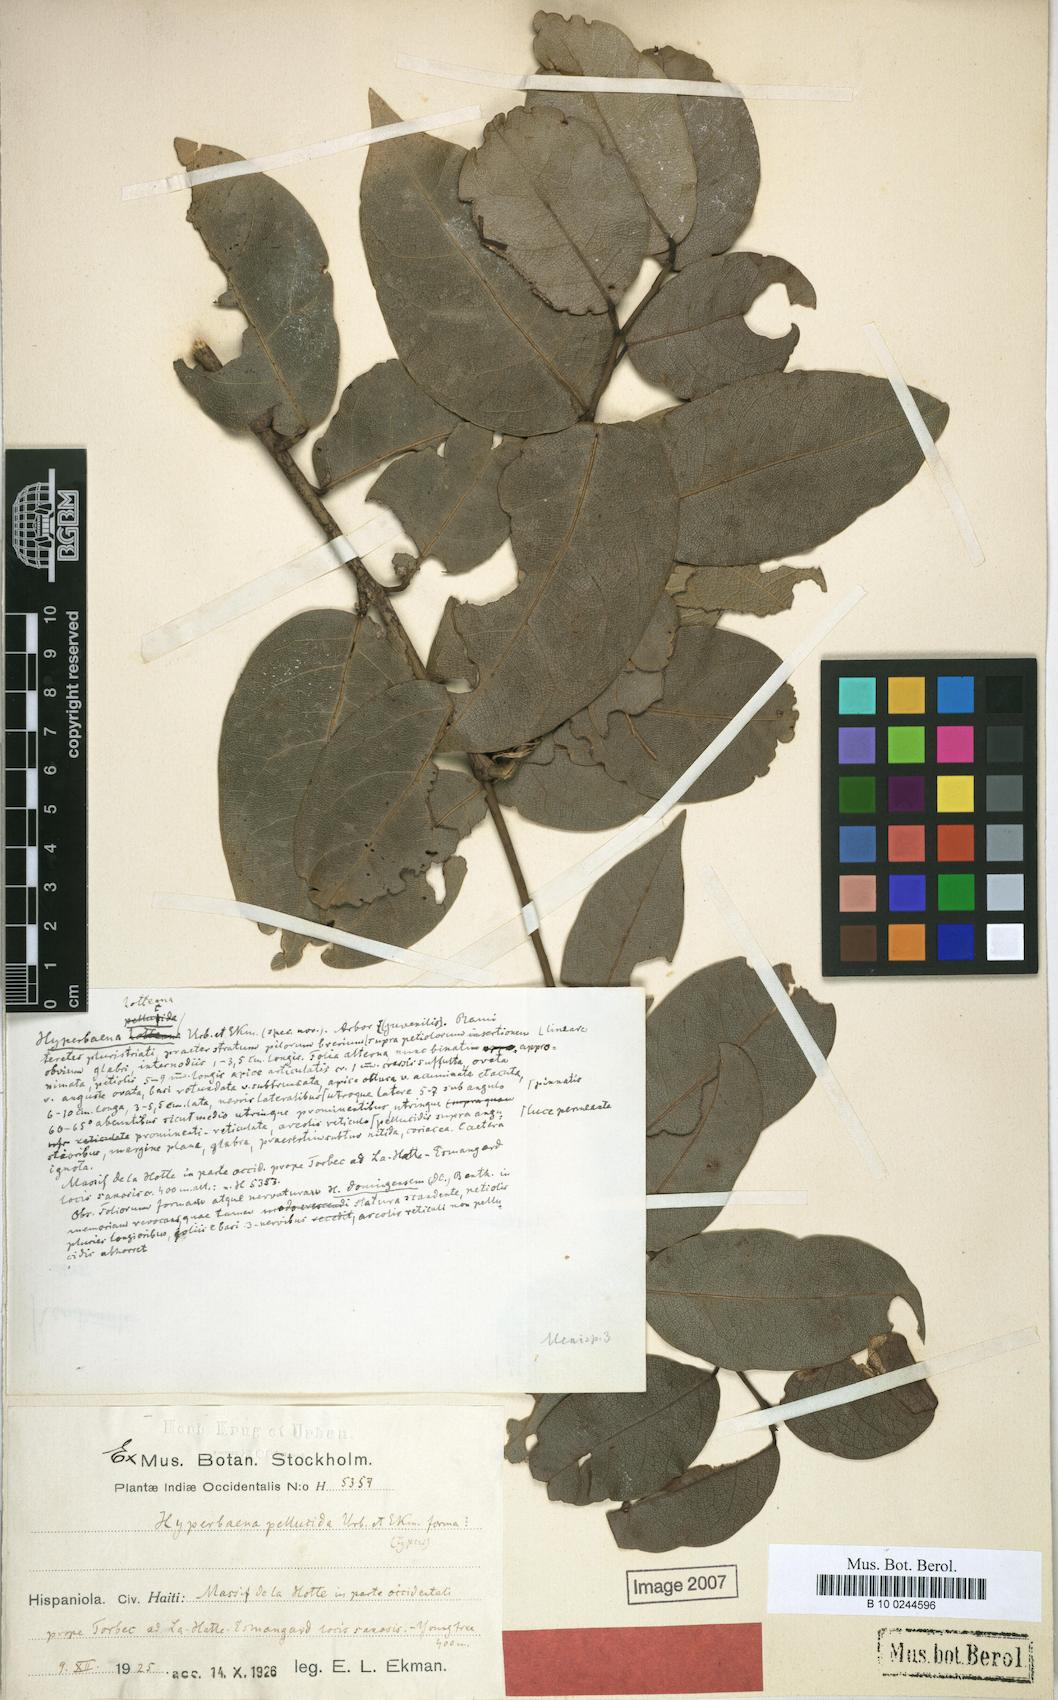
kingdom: Plantae
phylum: Tracheophyta
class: Magnoliopsida
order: Ranunculales
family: Menispermaceae
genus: Hyperbaena
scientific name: Hyperbaena laurifolia
